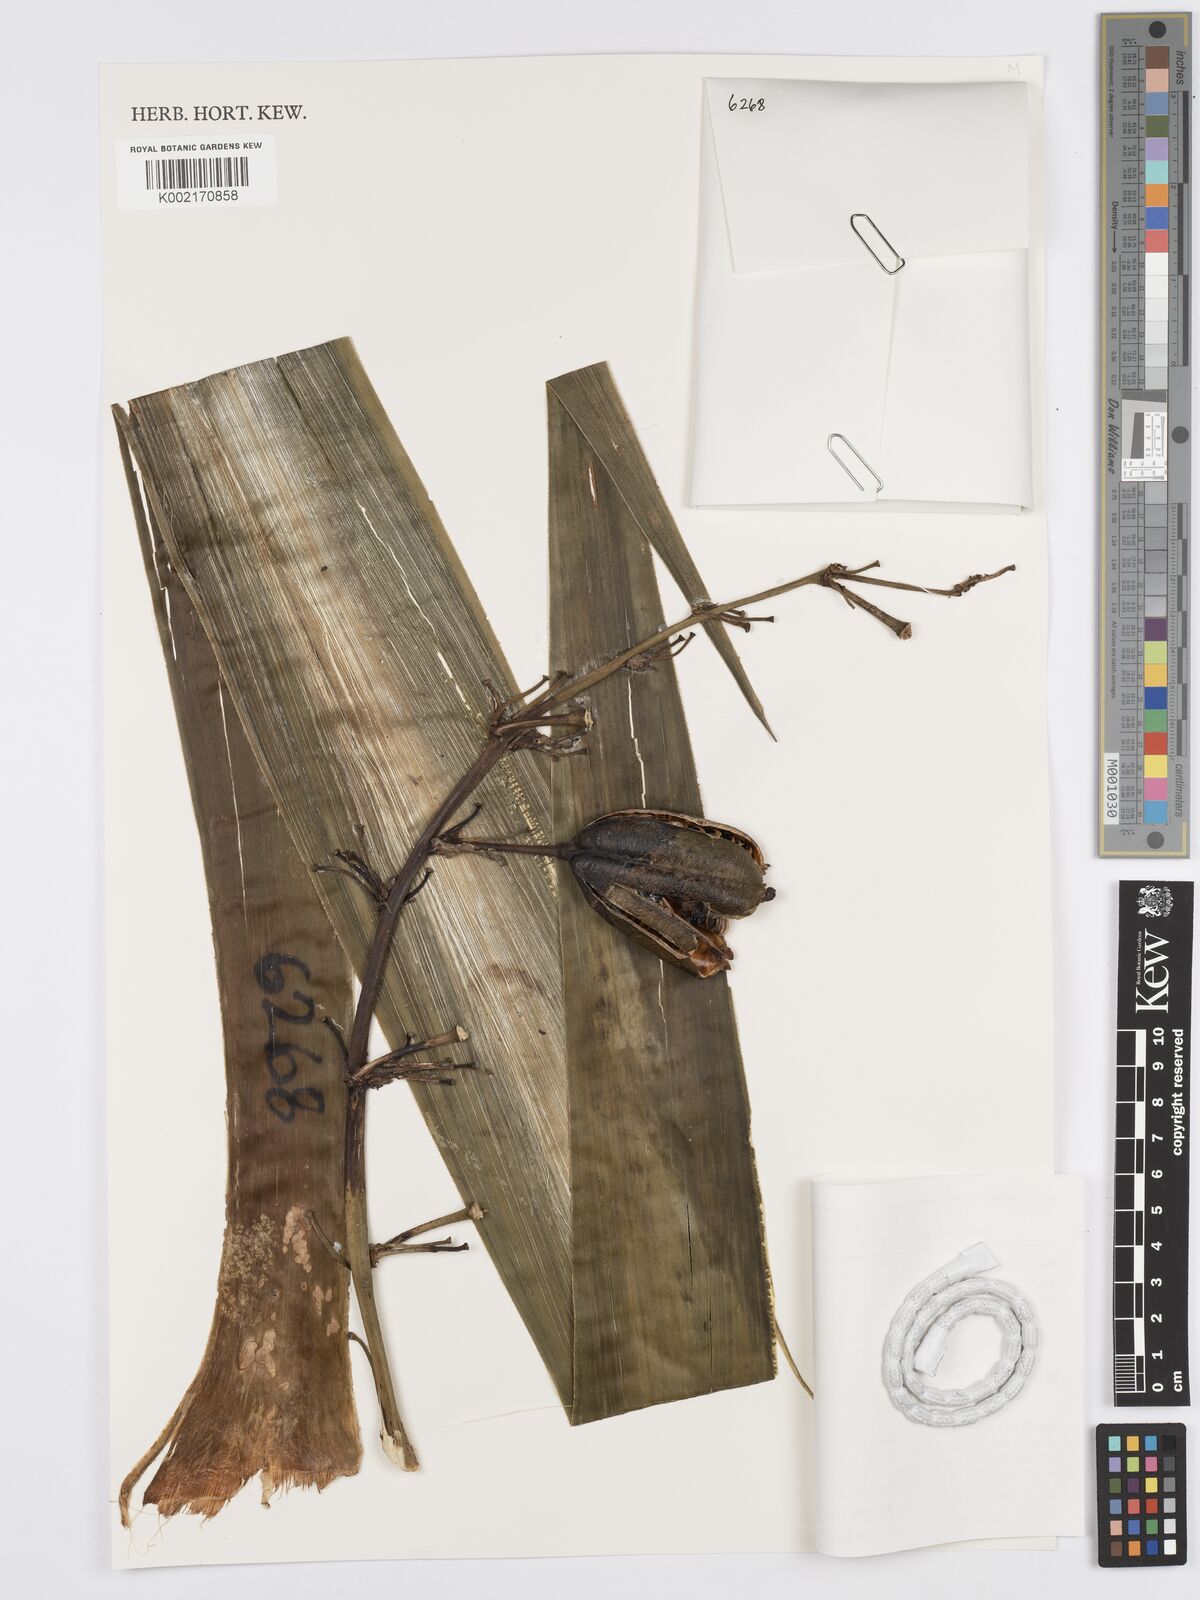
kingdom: Plantae
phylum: Tracheophyta
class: Liliopsida
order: Asparagales
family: Asparagaceae
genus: Furcraea
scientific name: Furcraea quicheensis
